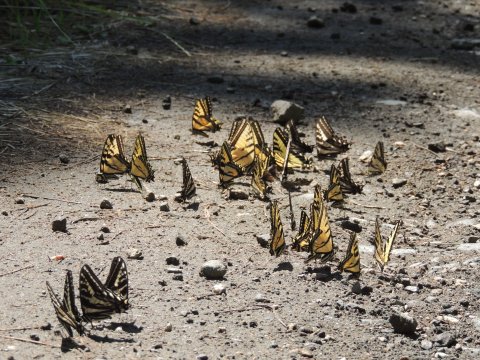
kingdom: Animalia
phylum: Arthropoda
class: Insecta
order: Lepidoptera
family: Papilionidae
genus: Pterourus
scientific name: Pterourus rutulus
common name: Western Tiger Swallowtail
